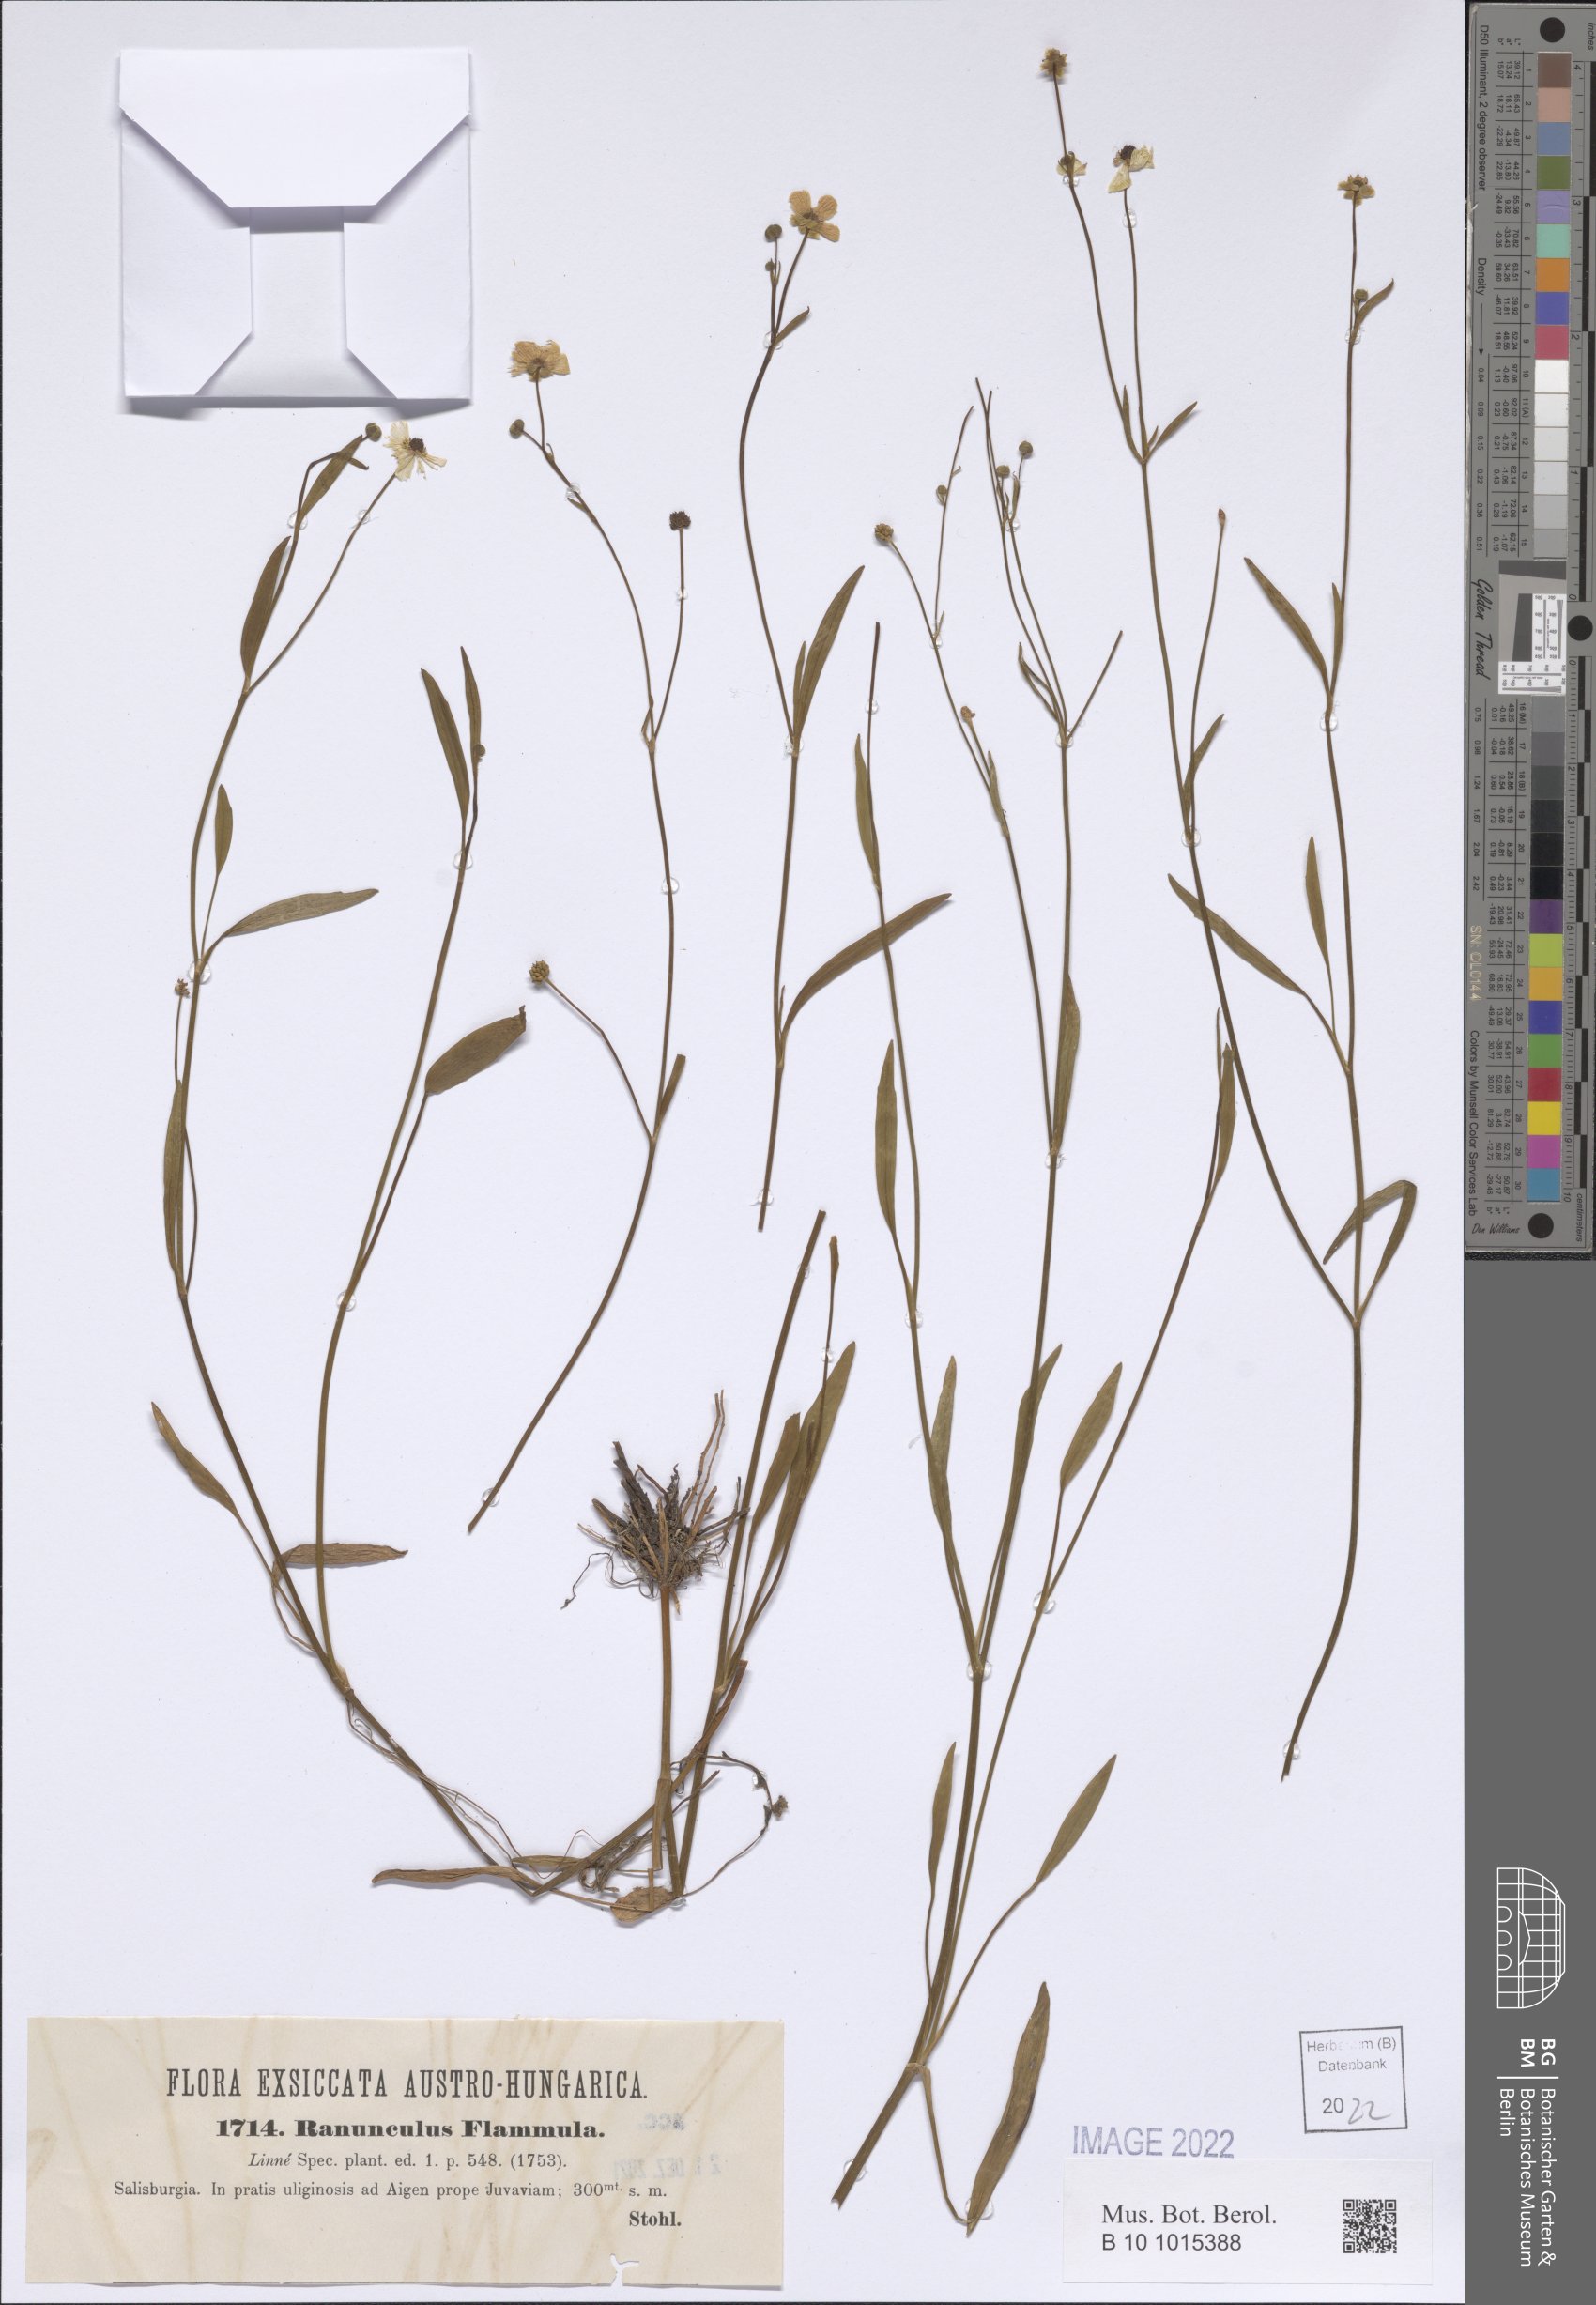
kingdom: Plantae
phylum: Tracheophyta
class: Magnoliopsida
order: Ranunculales
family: Ranunculaceae
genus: Ranunculus
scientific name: Ranunculus flammula
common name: Lesser spearwort
